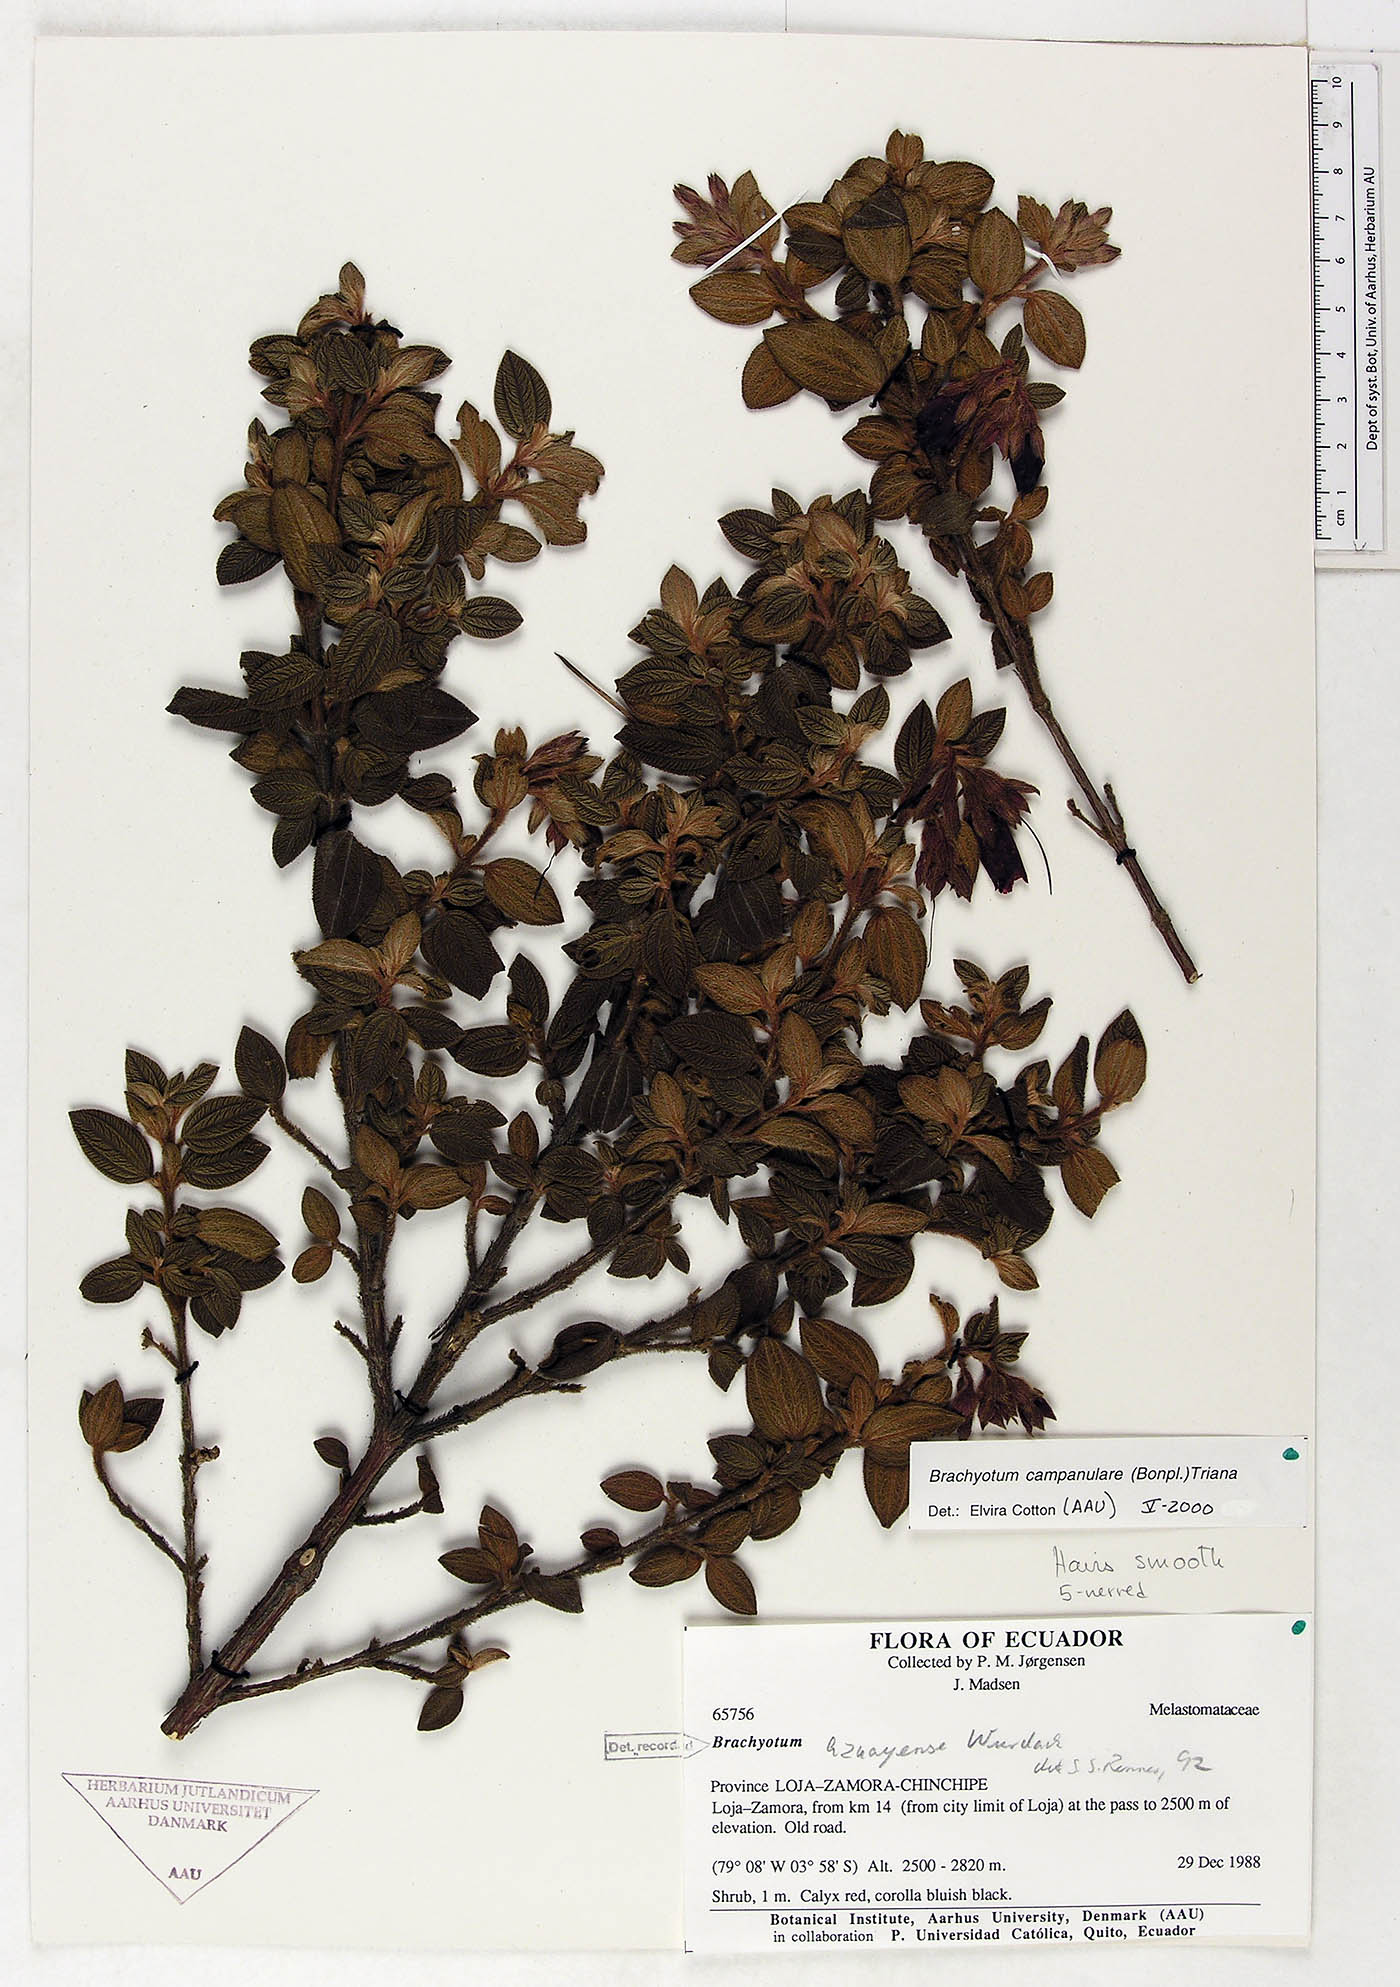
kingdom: Plantae
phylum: Tracheophyta
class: Magnoliopsida
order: Myrtales
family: Melastomataceae
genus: Brachyotum
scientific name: Brachyotum campanulare
